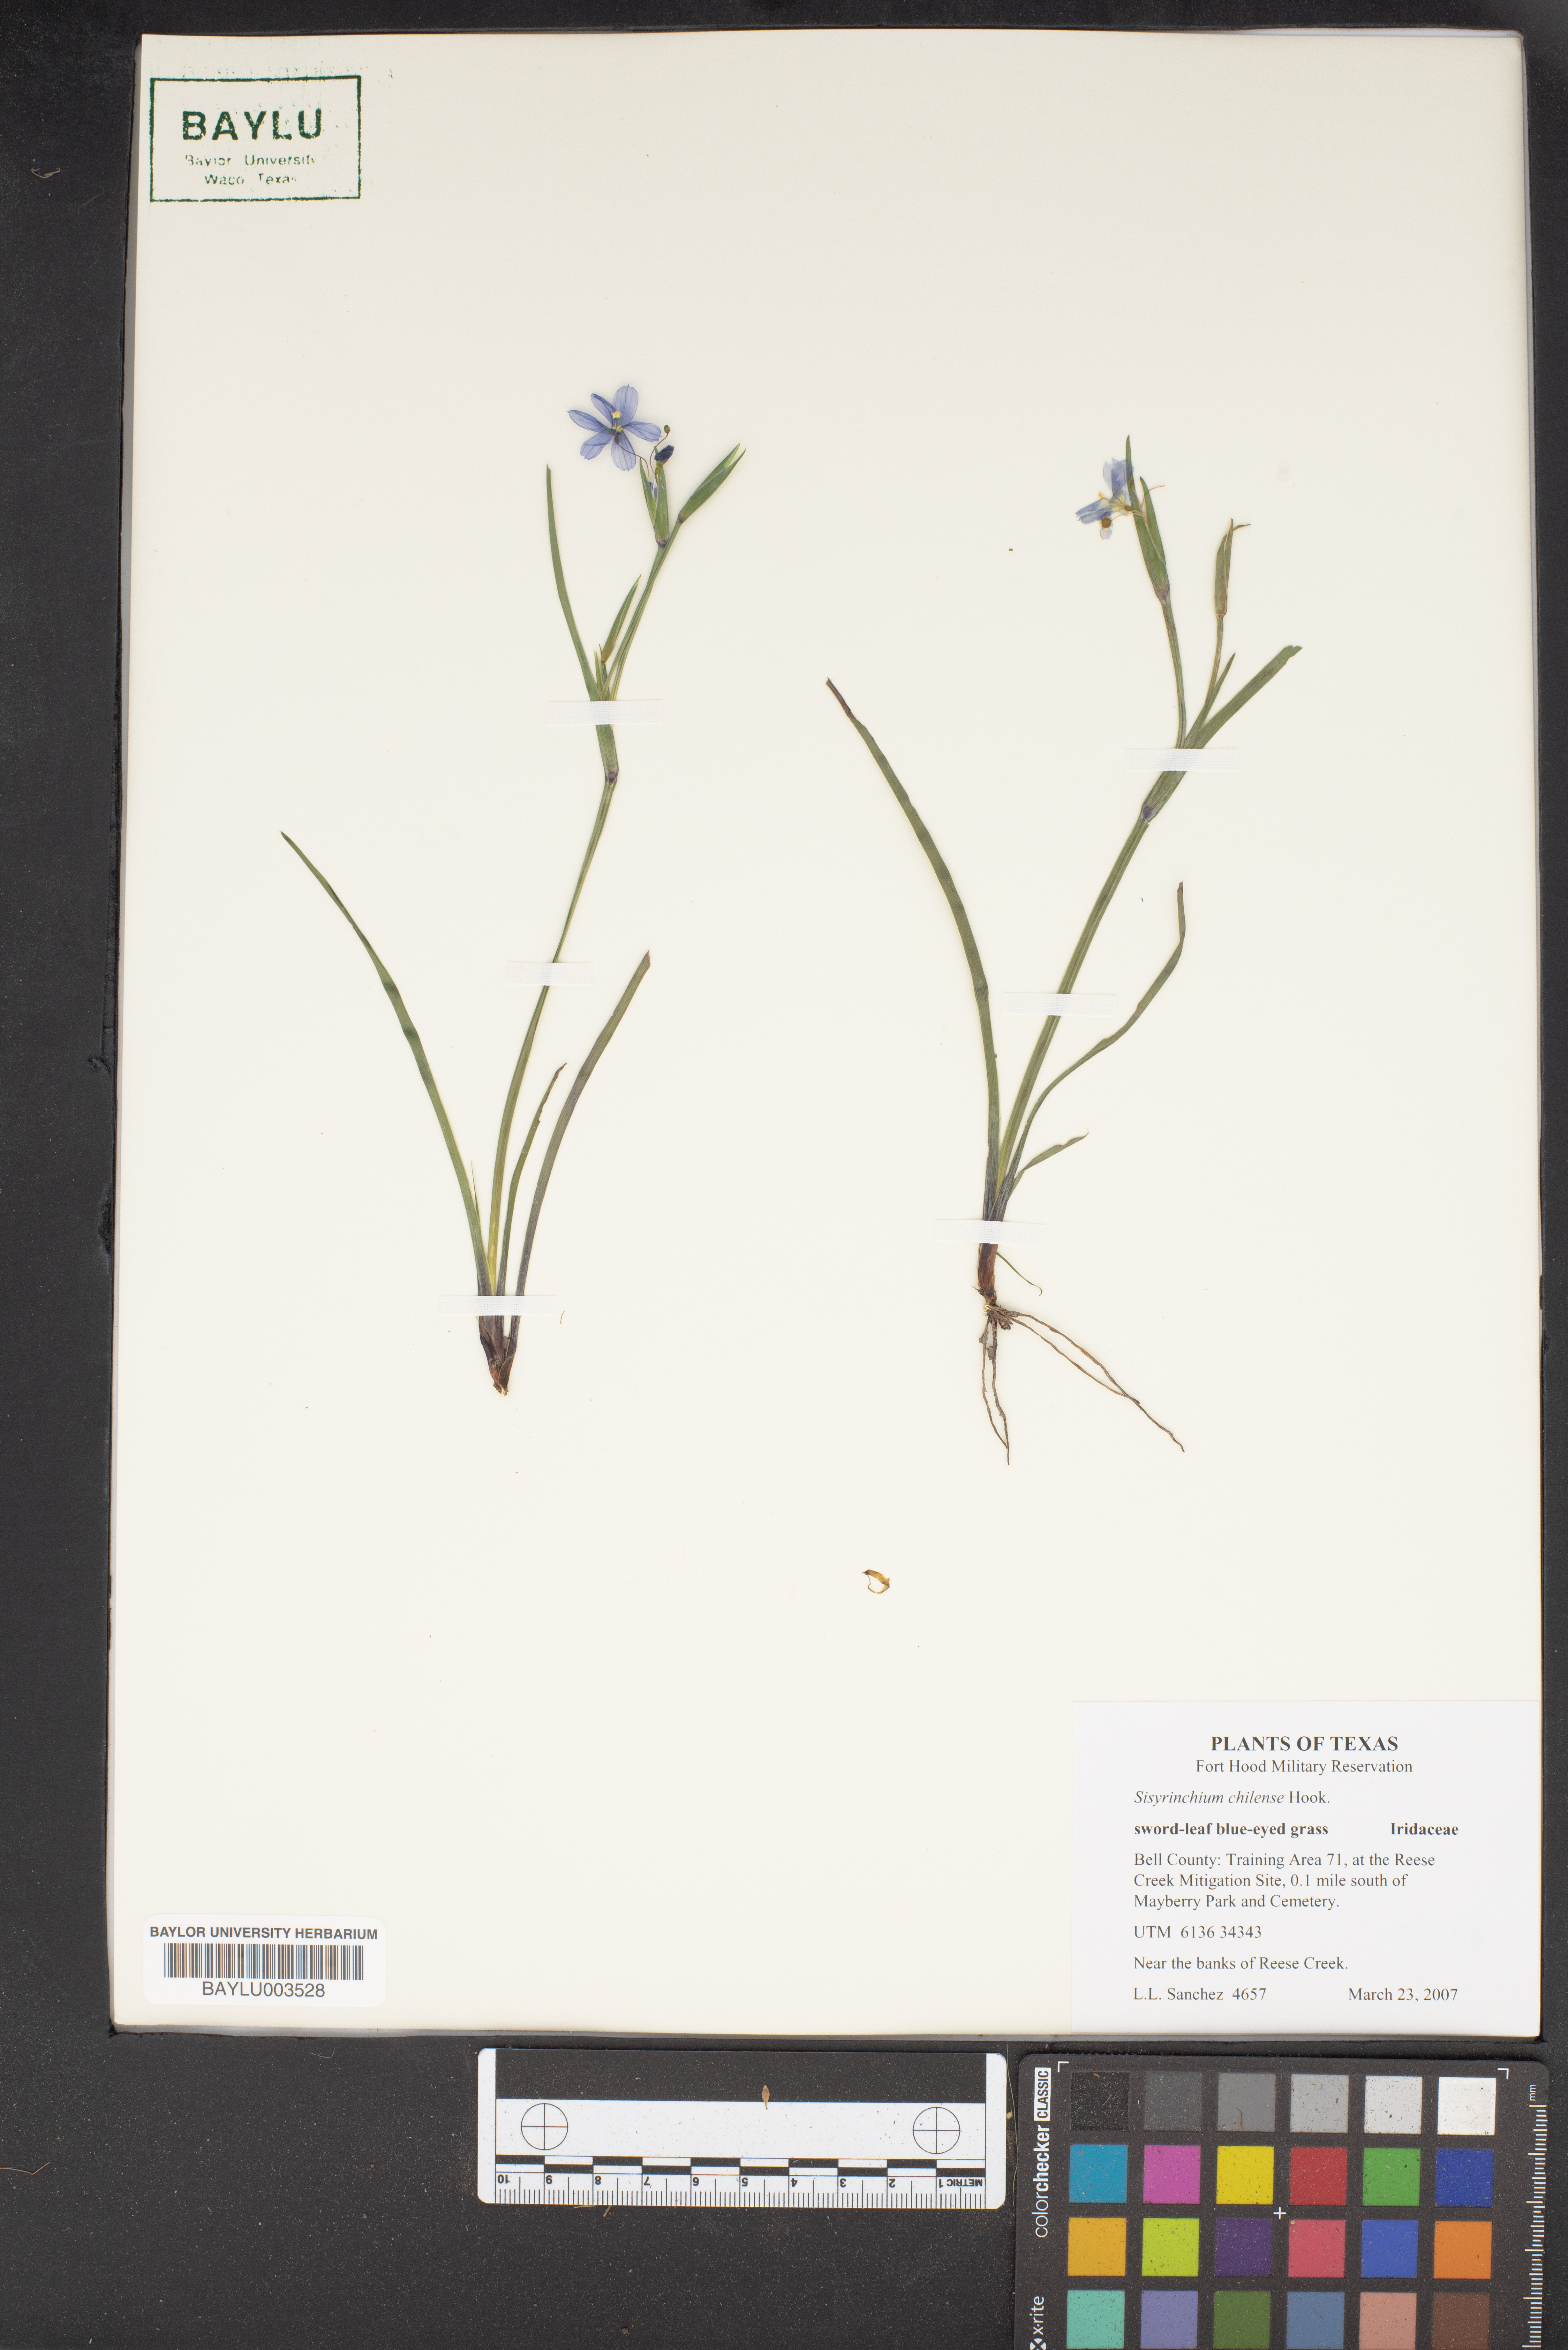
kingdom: Plantae
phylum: Tracheophyta
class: Liliopsida
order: Asparagales
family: Iridaceae
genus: Sisyrinchium
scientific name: Sisyrinchium chilense
